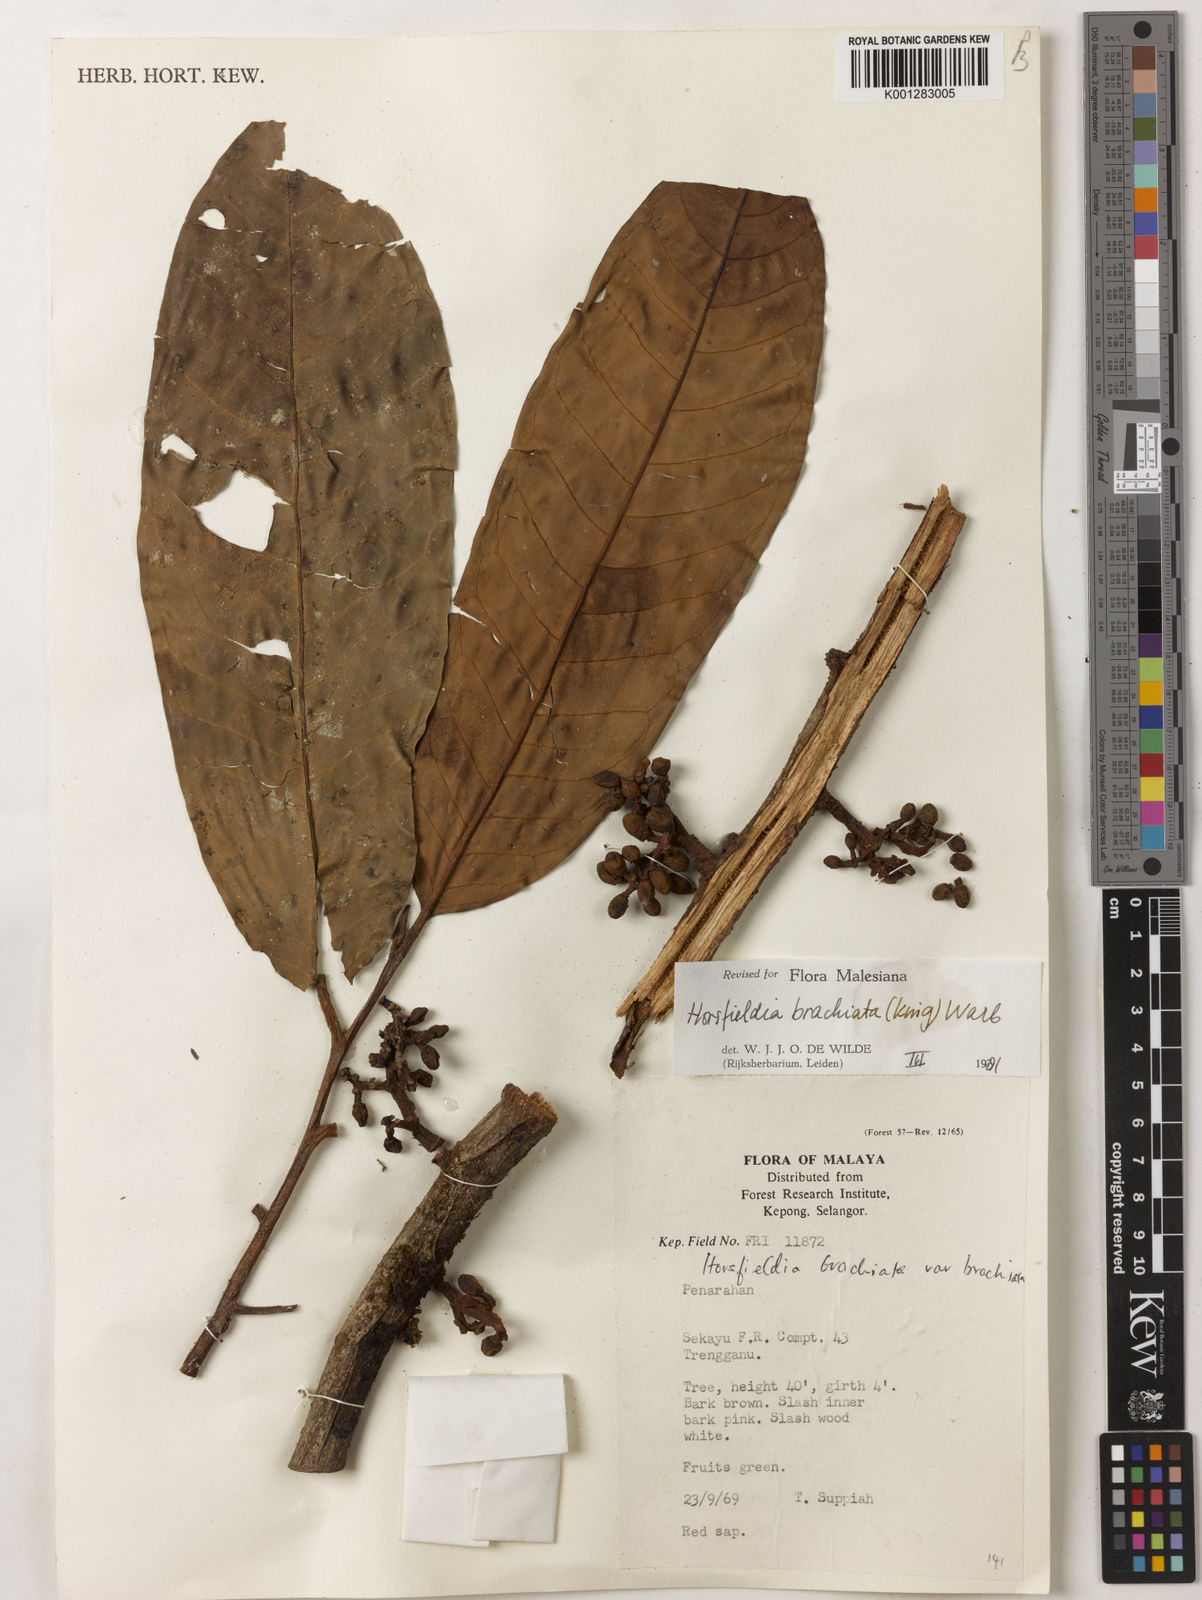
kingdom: Plantae
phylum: Tracheophyta
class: Magnoliopsida
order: Magnoliales
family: Myristicaceae
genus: Horsfieldia
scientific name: Horsfieldia brachiata
